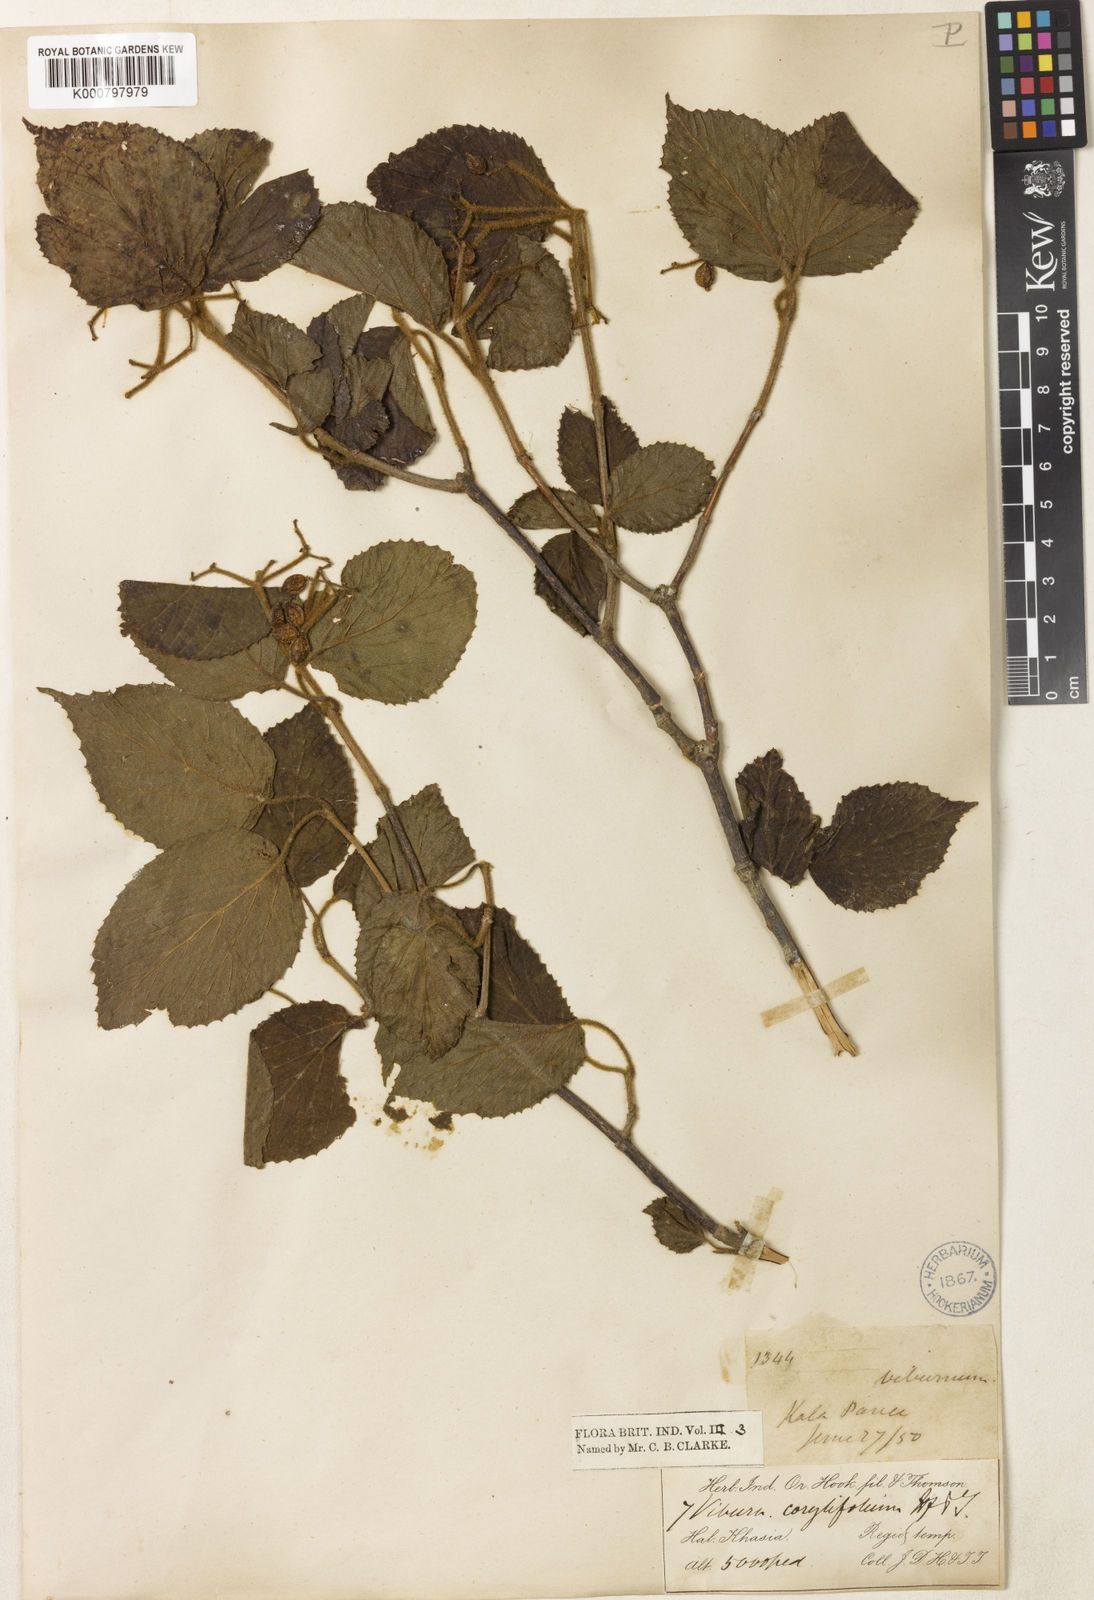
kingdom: Plantae
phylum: Tracheophyta
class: Magnoliopsida
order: Dipsacales
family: Viburnaceae
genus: Viburnum
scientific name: Viburnum corylifolium
